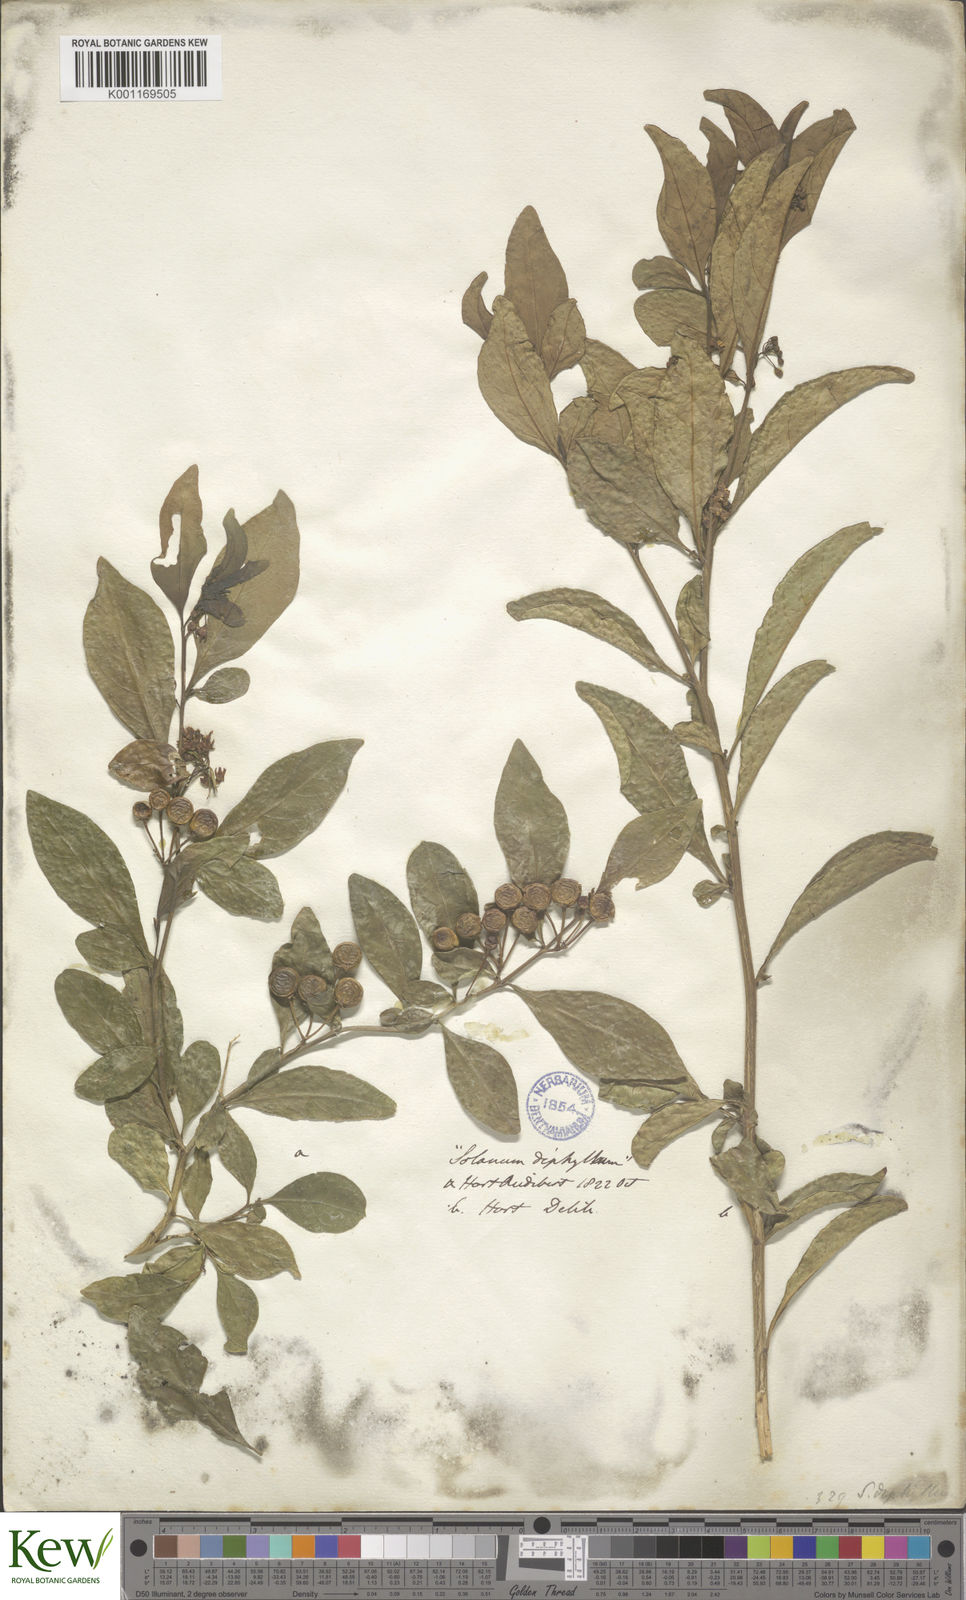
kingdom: Plantae
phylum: Tracheophyta
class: Magnoliopsida
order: Solanales
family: Solanaceae
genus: Solanum
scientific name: Solanum diphyllum
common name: Twoleaf nightshade
